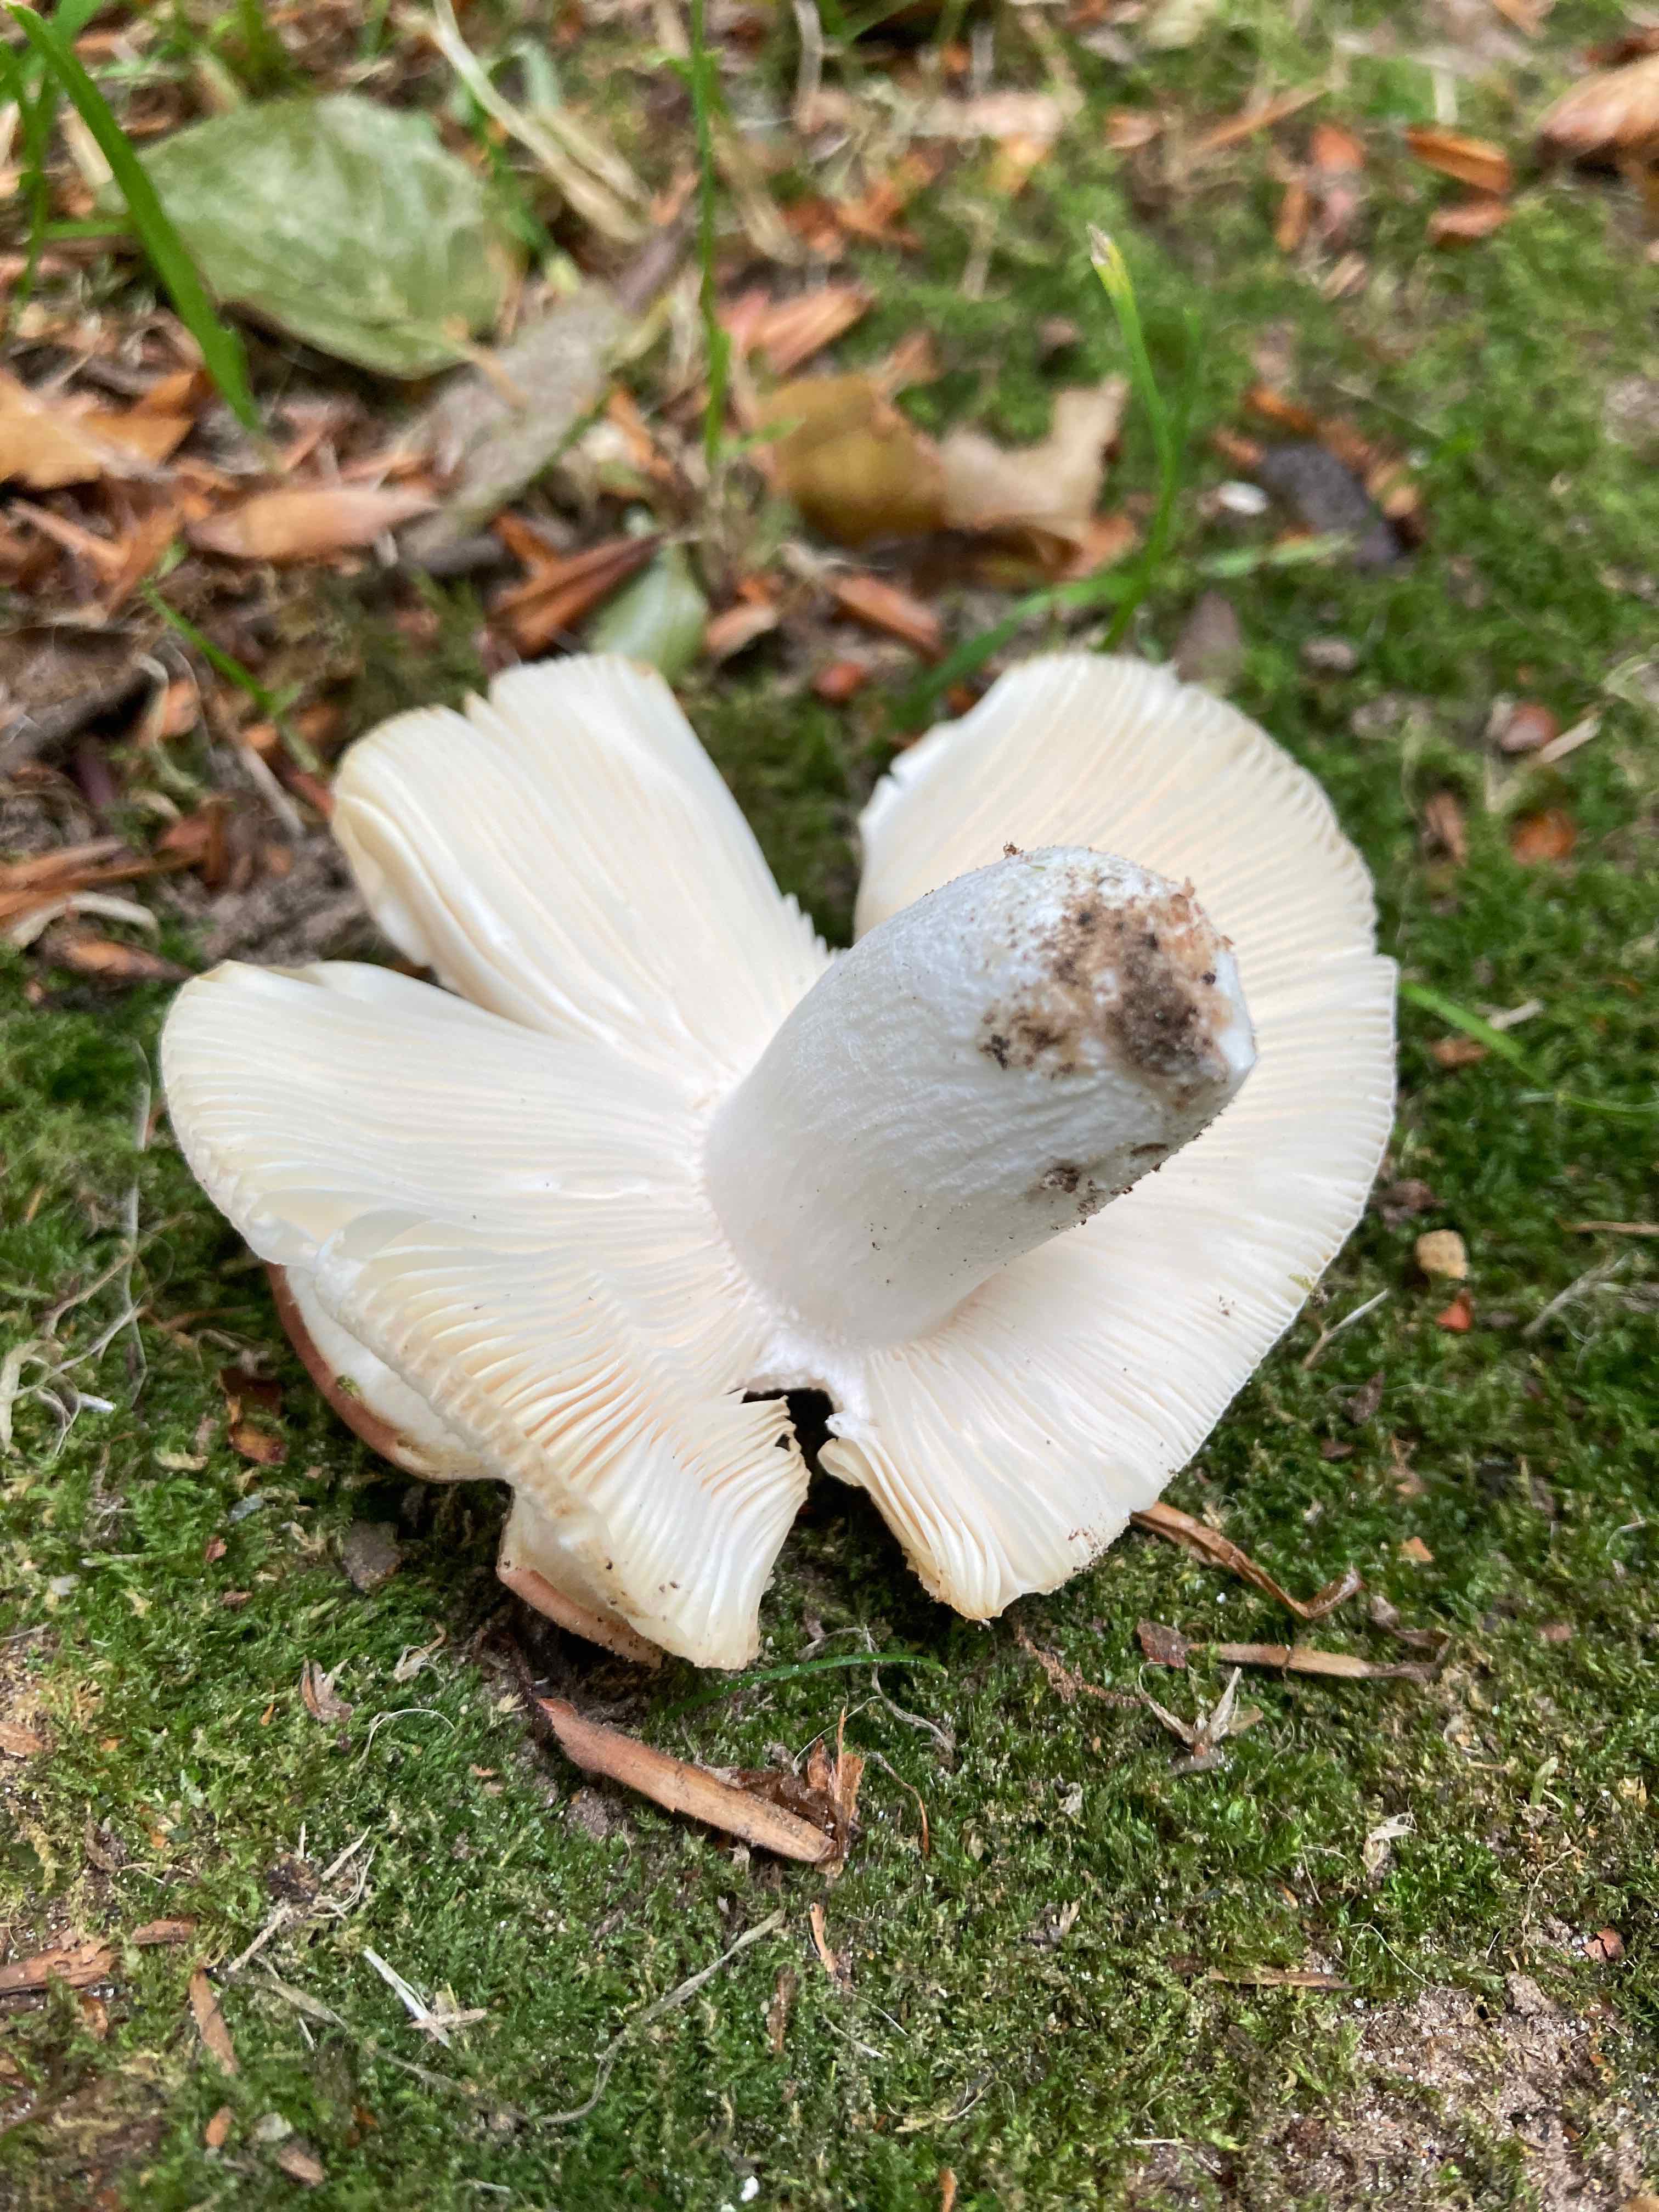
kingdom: Fungi
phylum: Basidiomycota
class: Agaricomycetes
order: Russulales
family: Russulaceae
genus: Russula
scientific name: Russula
